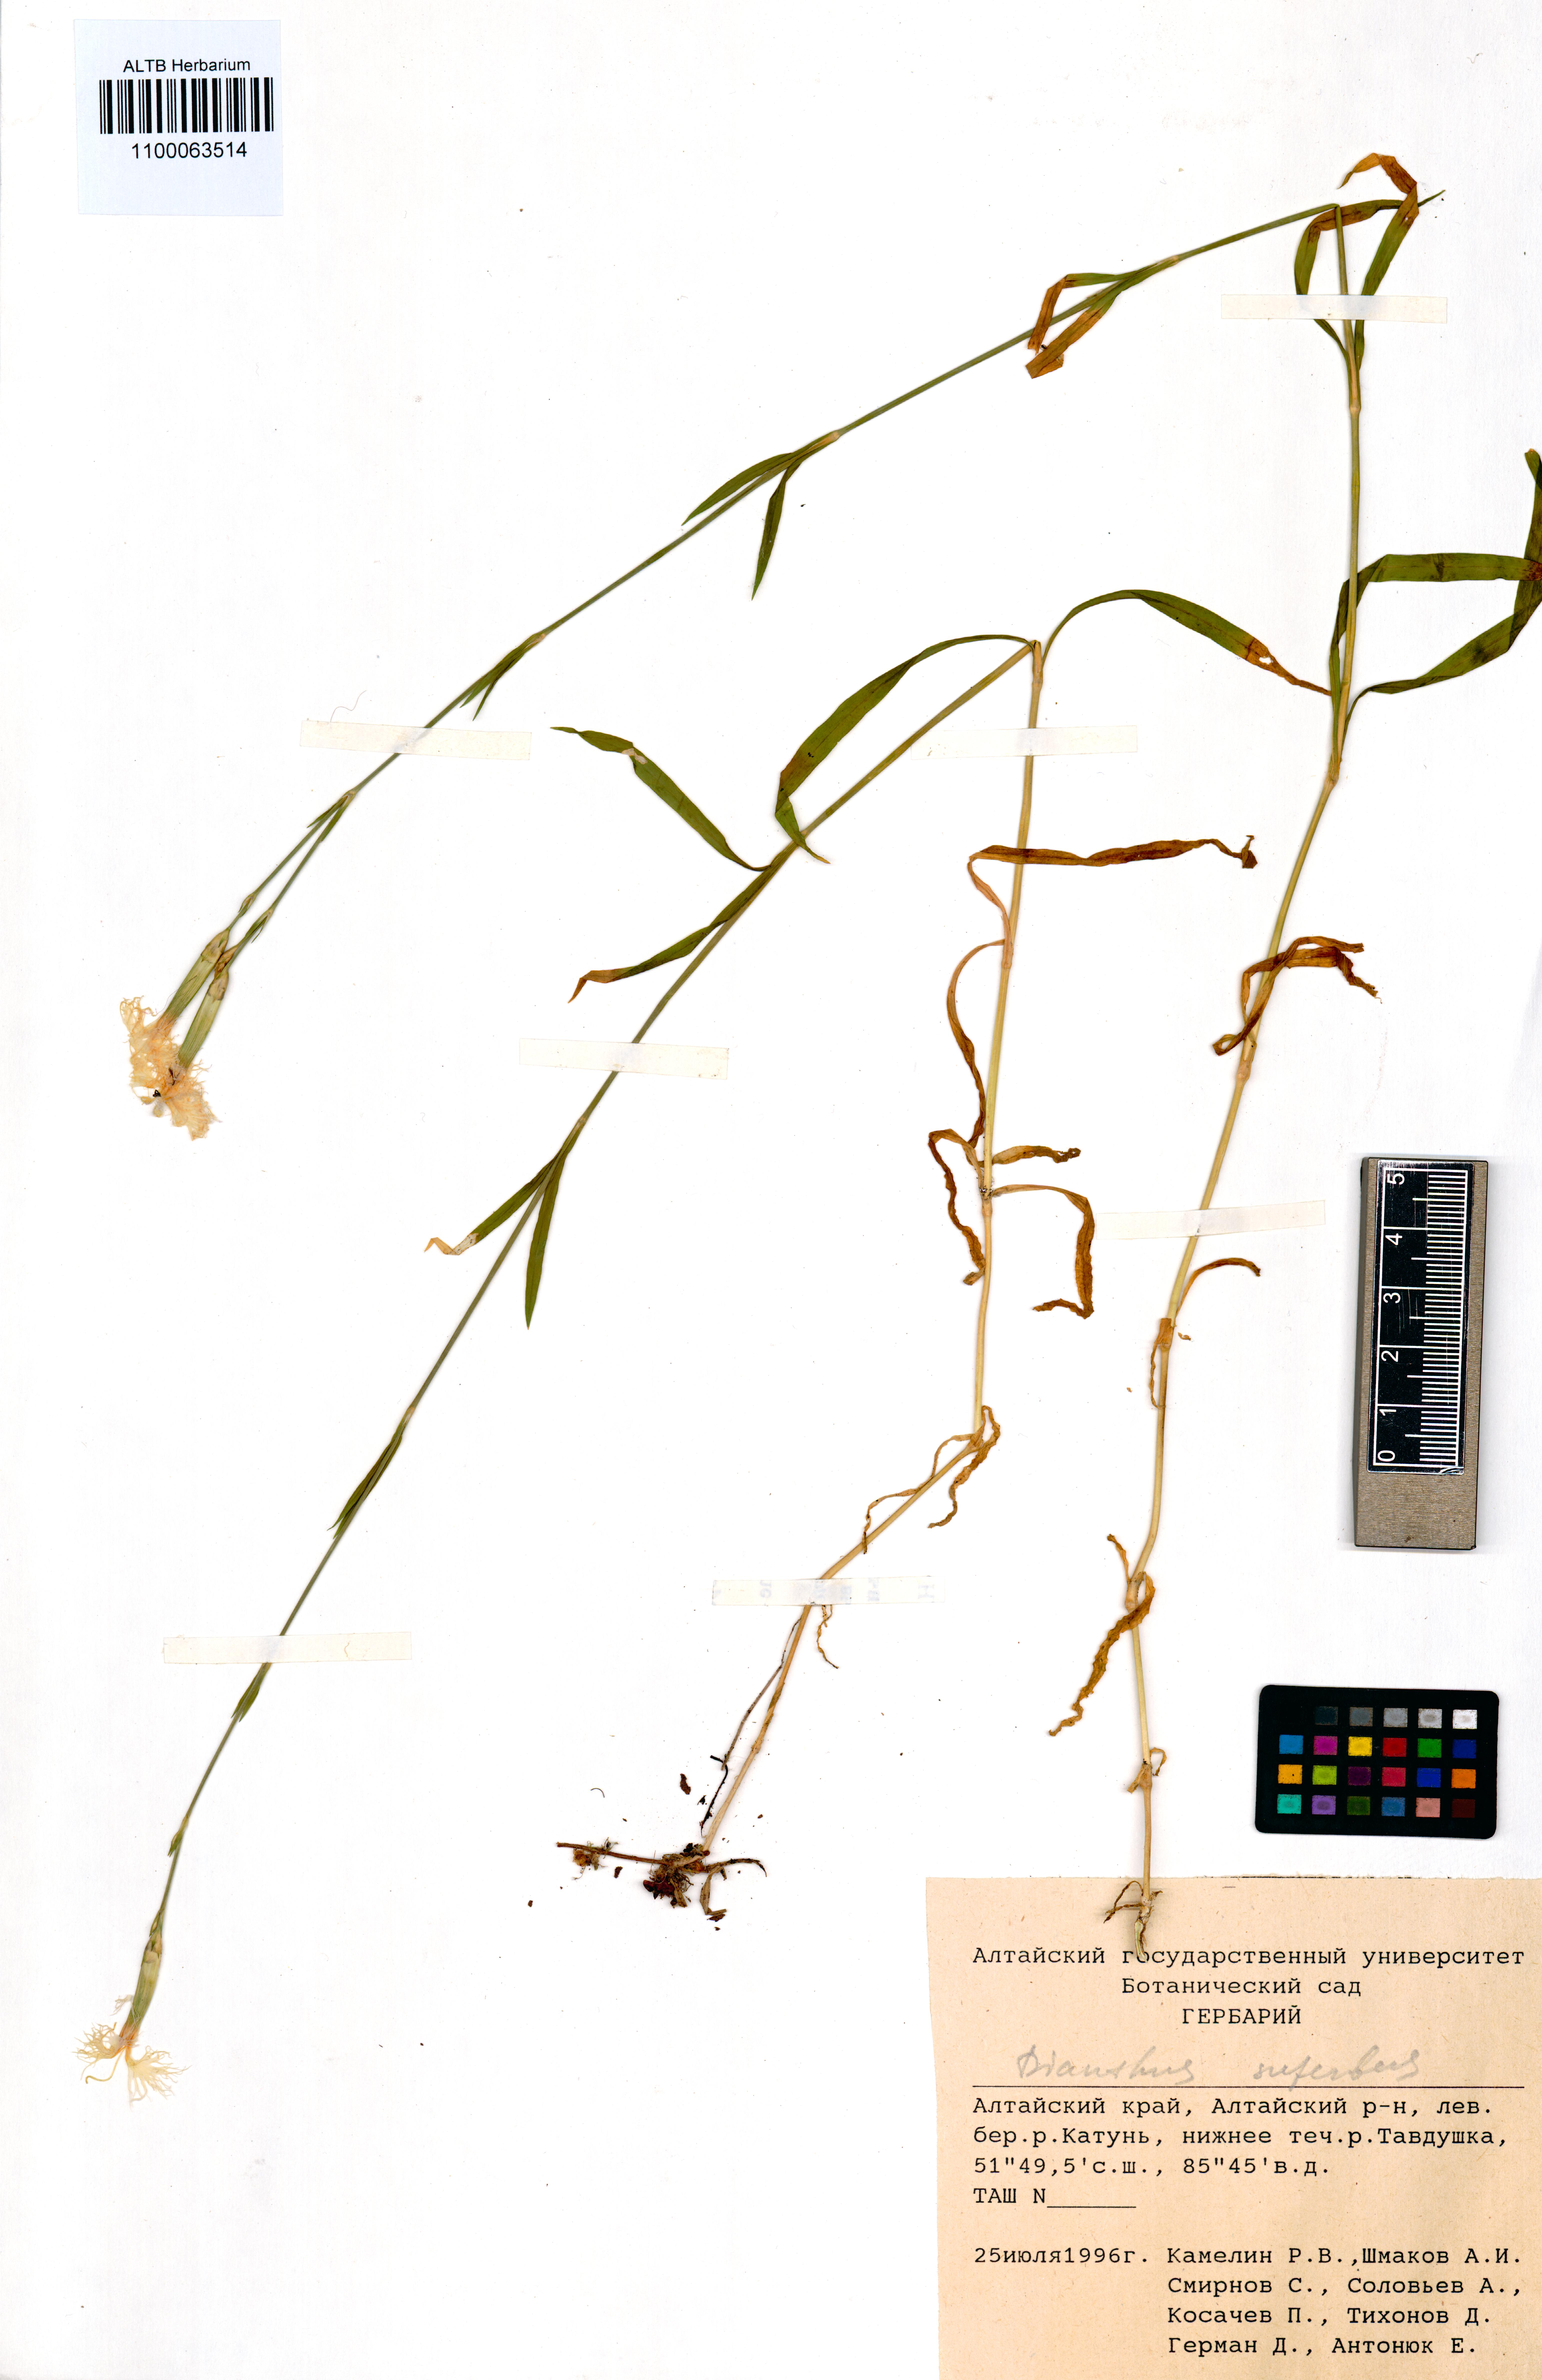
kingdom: Plantae
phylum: Tracheophyta
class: Magnoliopsida
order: Caryophyllales
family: Caryophyllaceae
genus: Dianthus
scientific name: Dianthus superbus
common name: Fringed pink
